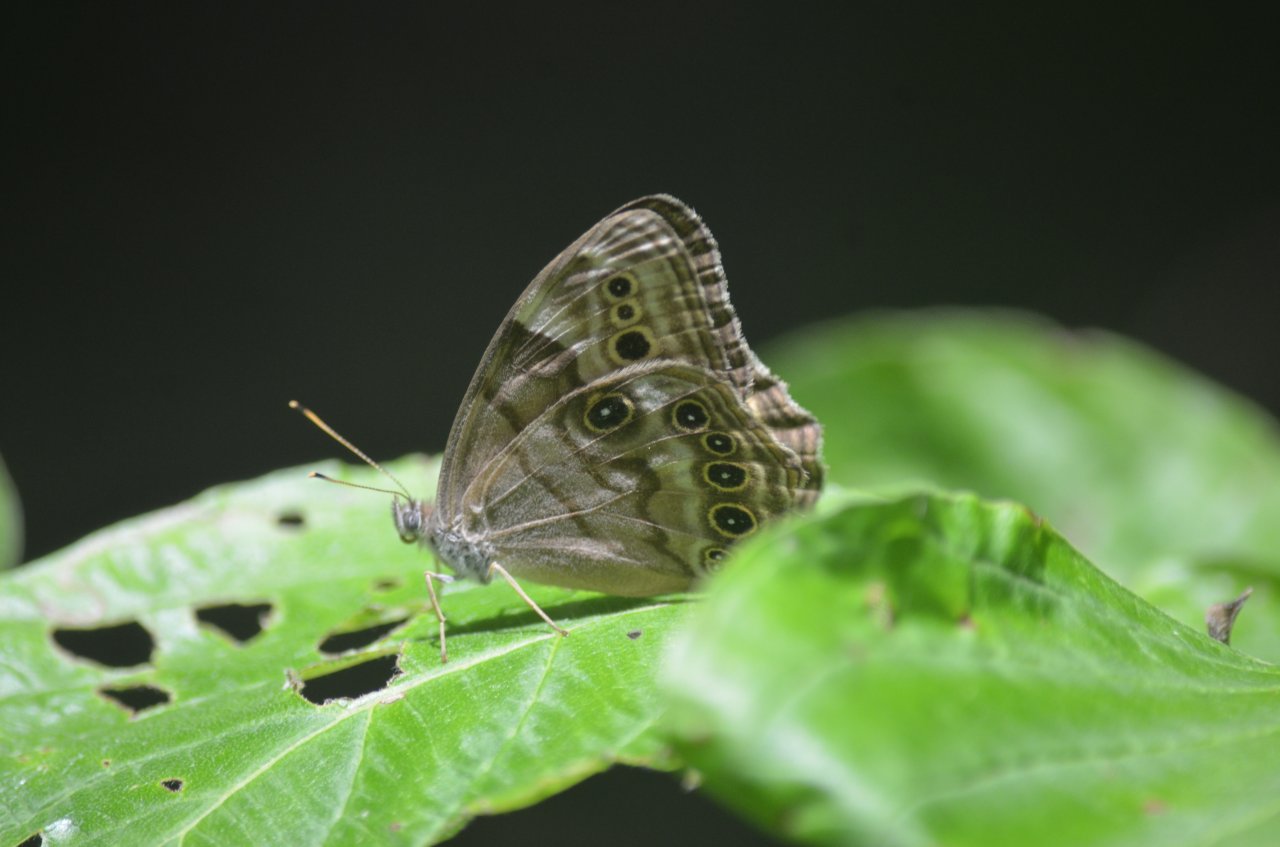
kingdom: Animalia
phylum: Arthropoda
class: Insecta
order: Lepidoptera
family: Nymphalidae
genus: Lethe
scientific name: Lethe anthedon
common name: Northern Pearly-Eye
